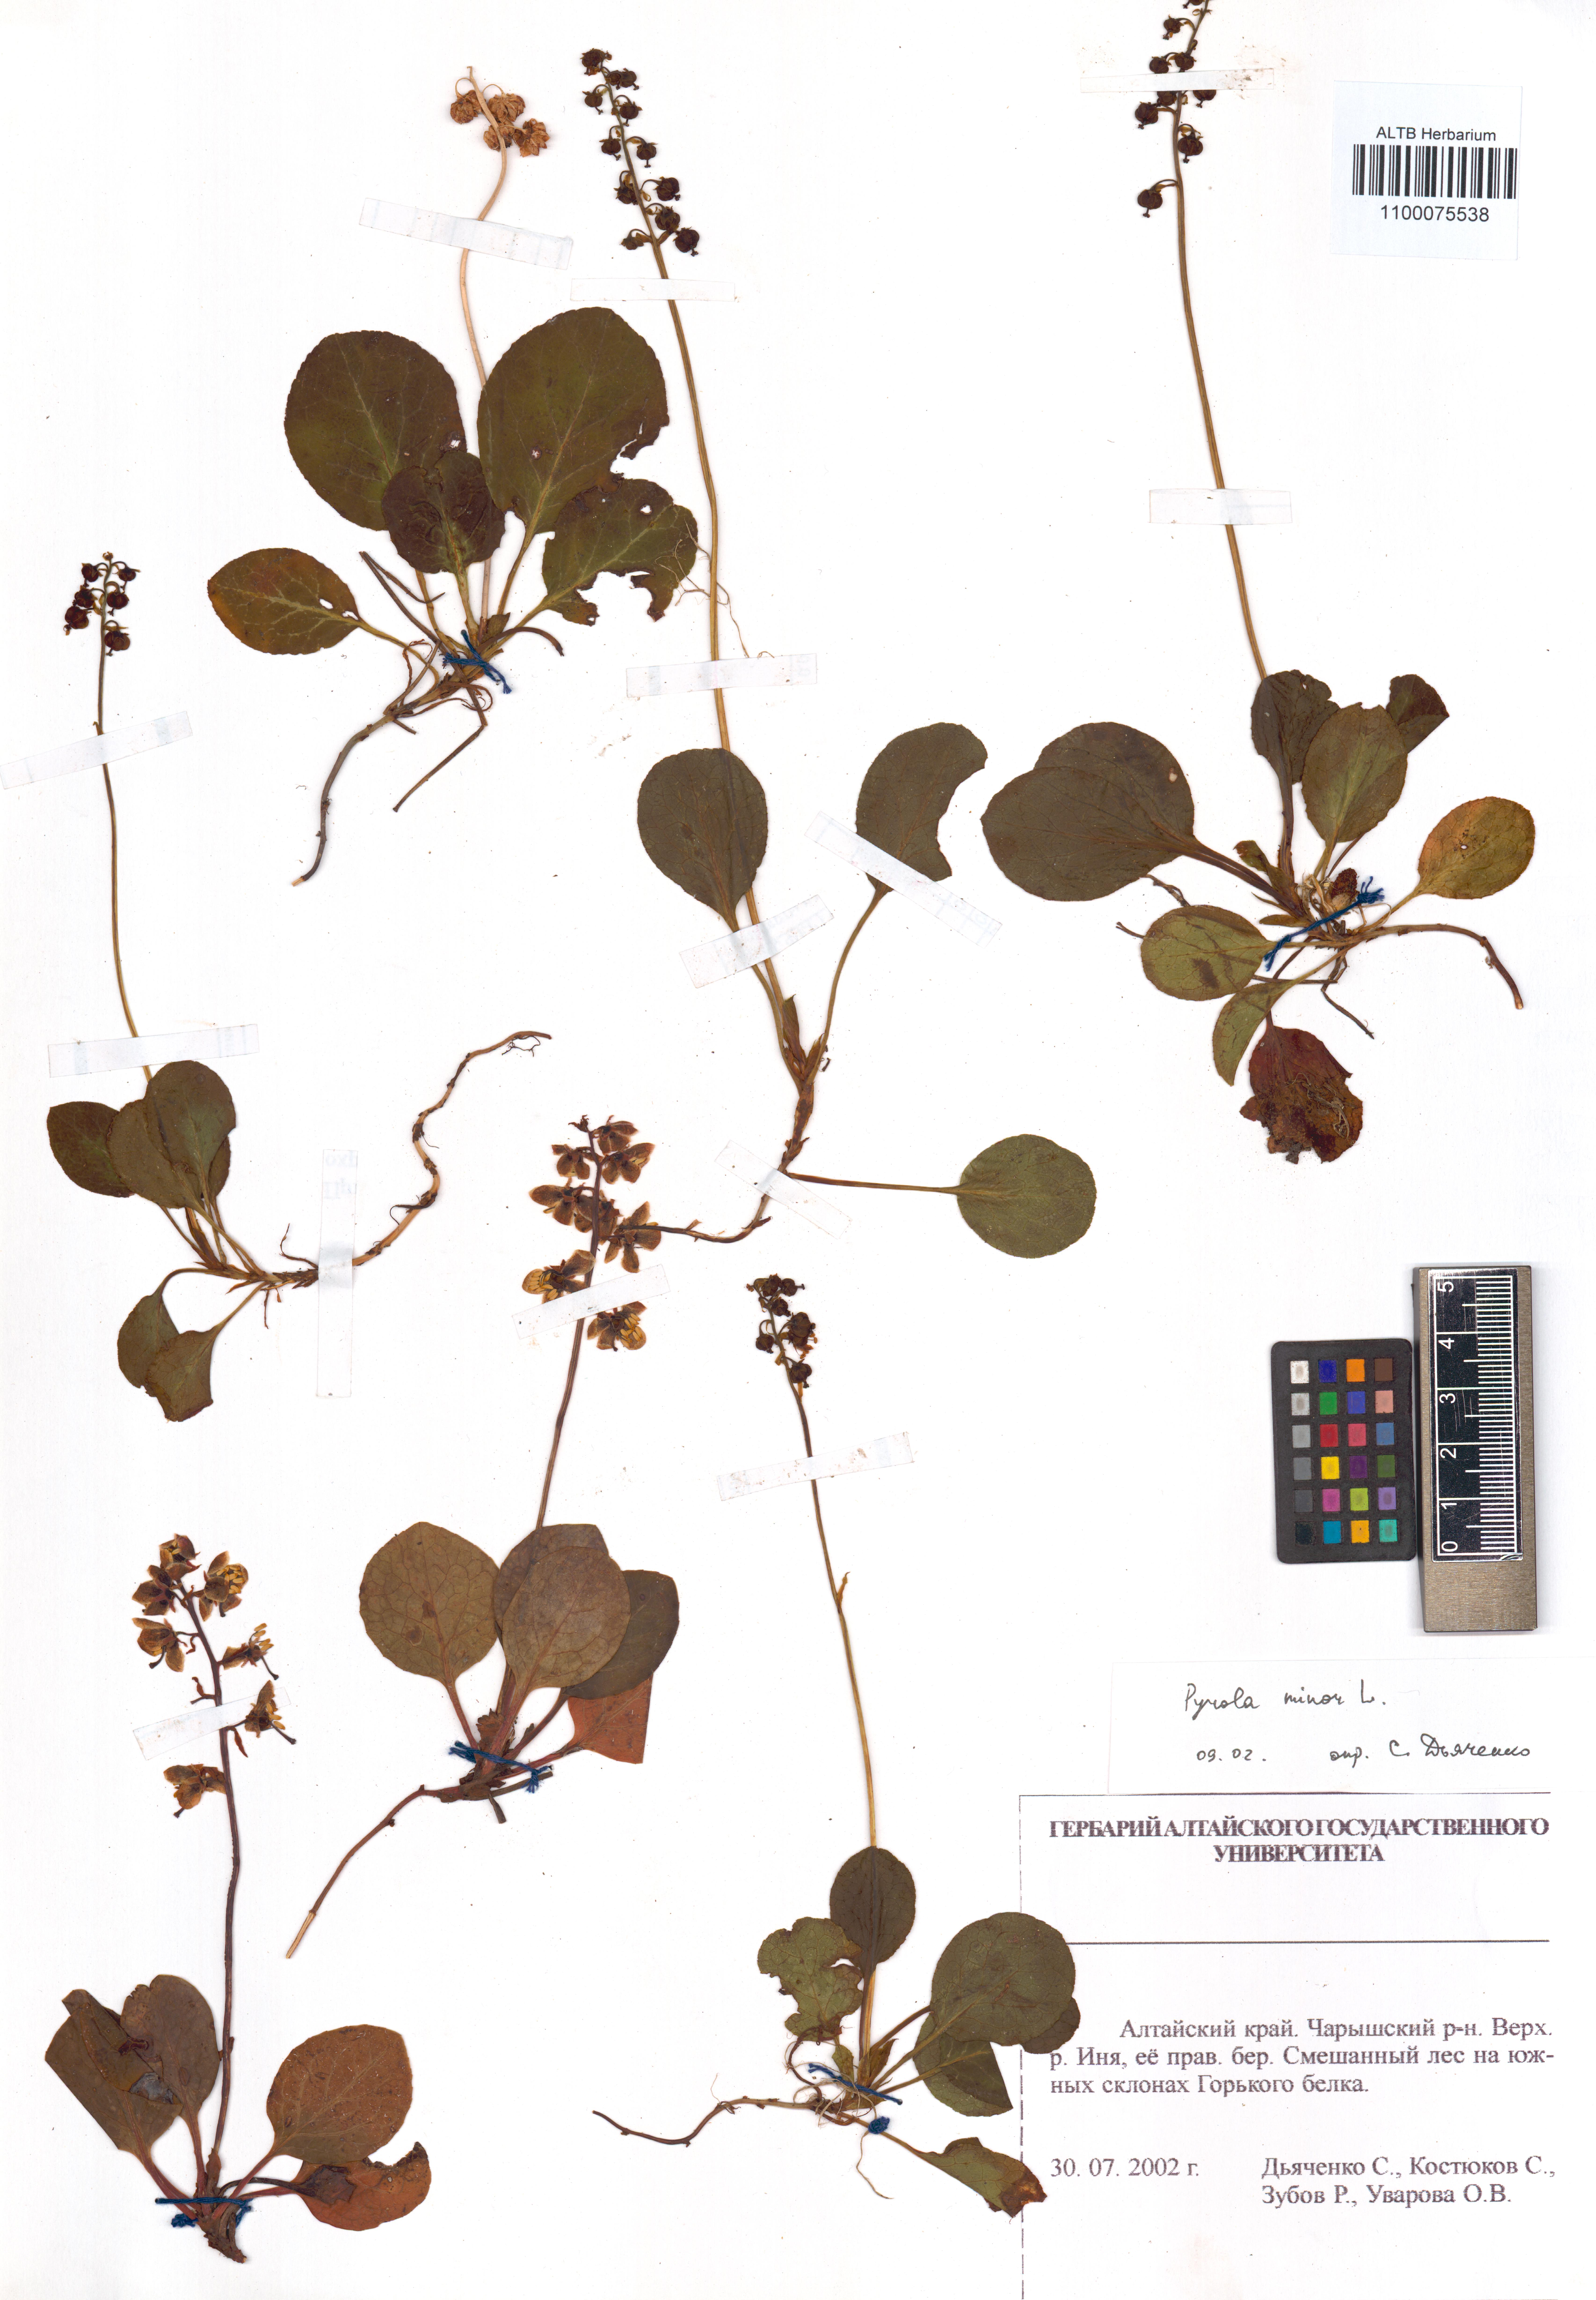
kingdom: Plantae
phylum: Tracheophyta
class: Magnoliopsida
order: Ericales
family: Ericaceae
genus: Pyrola
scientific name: Pyrola minor
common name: Common wintergreen
